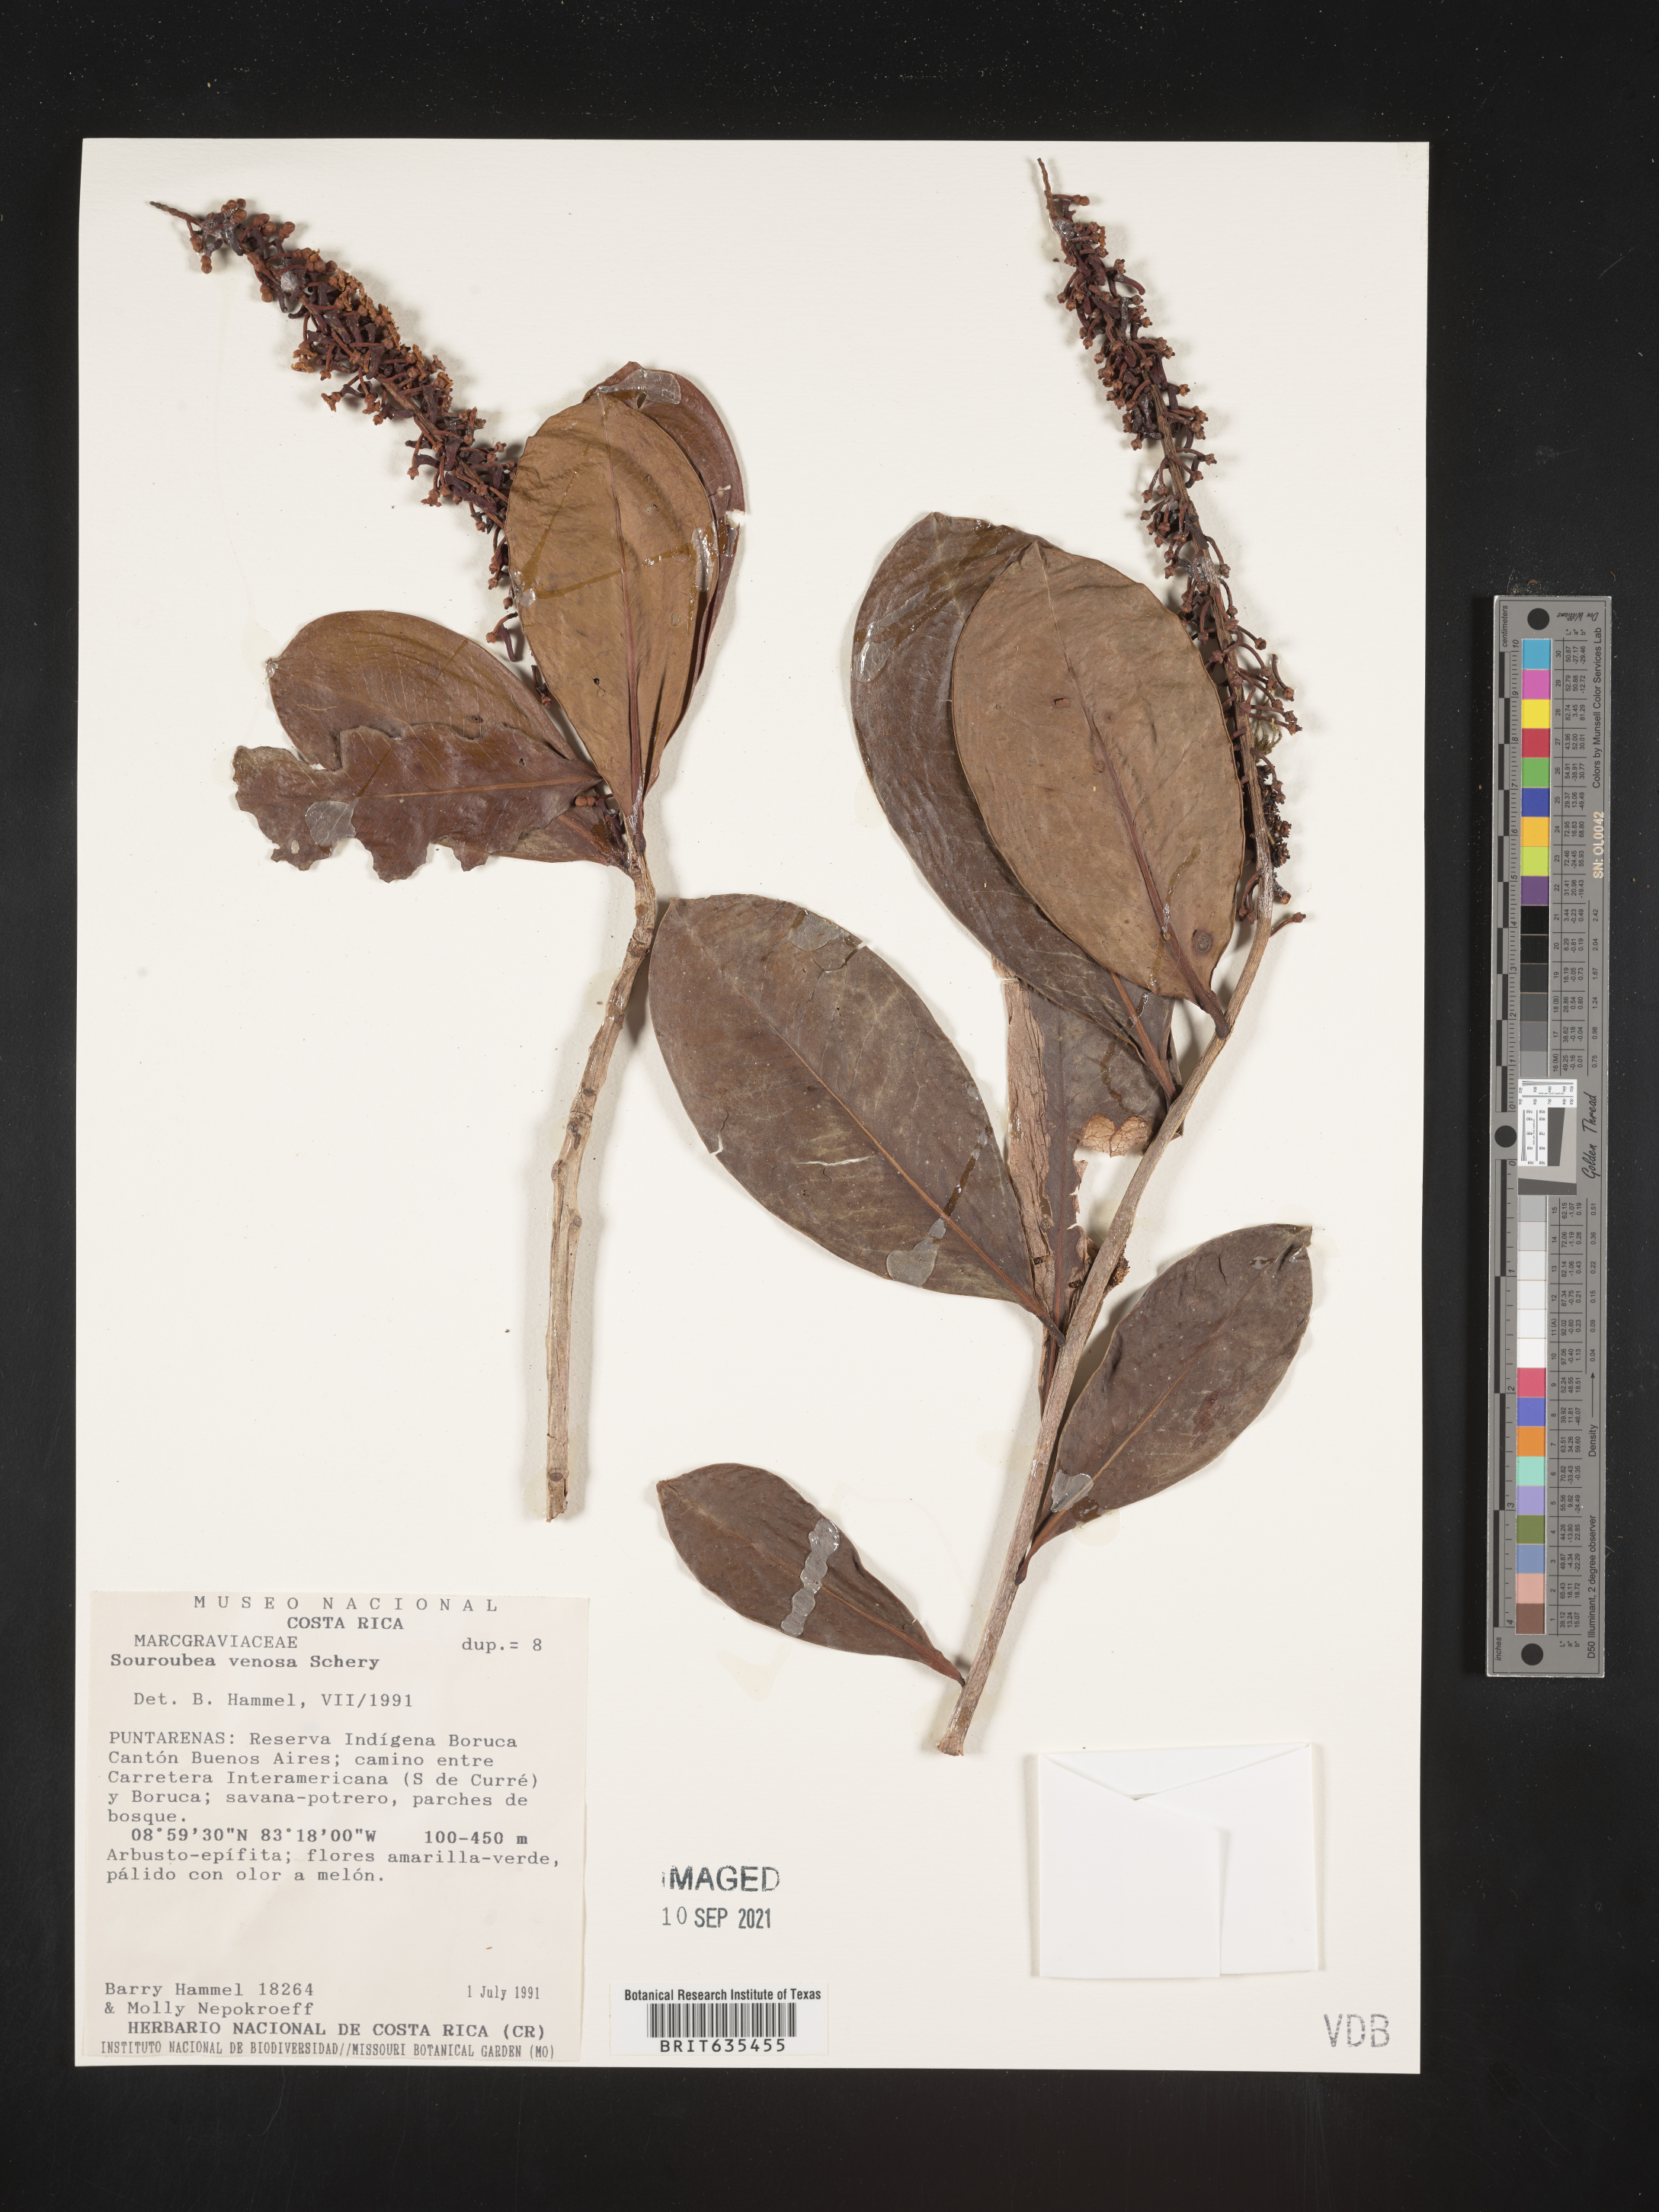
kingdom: Plantae
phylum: Tracheophyta
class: Magnoliopsida
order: Ericales
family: Marcgraviaceae
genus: Souroubea
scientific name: Souroubea
